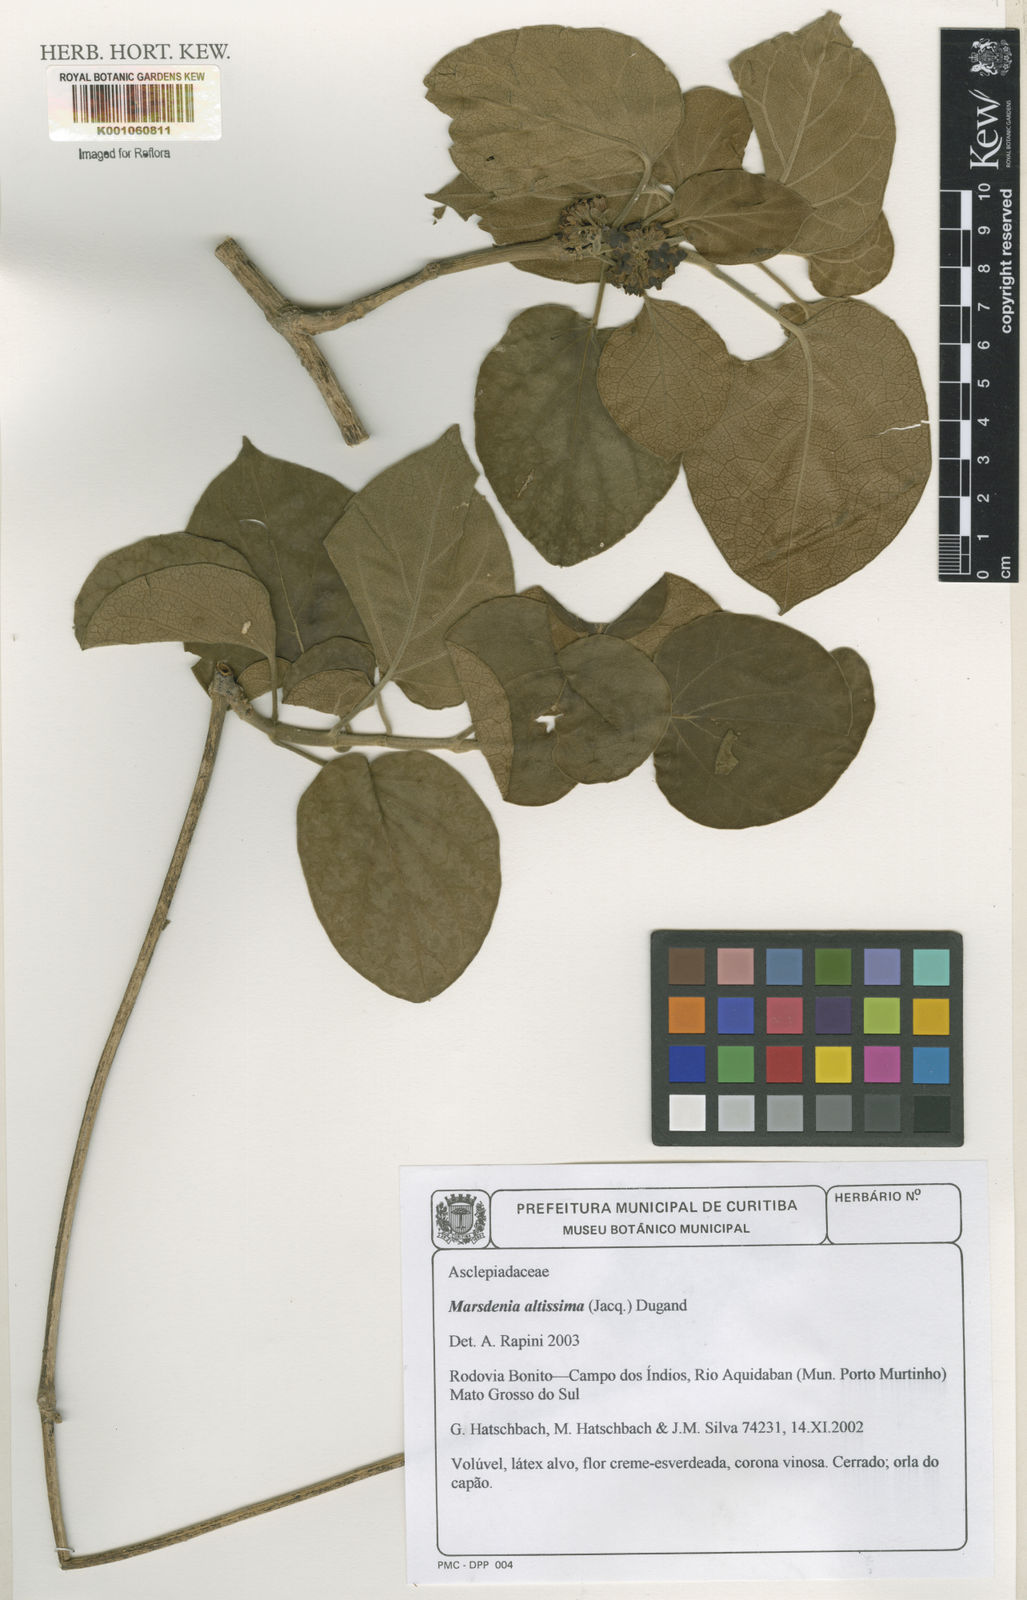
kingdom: Plantae
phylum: Tracheophyta
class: Magnoliopsida
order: Gentianales
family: Apocynaceae
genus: Ruehssia
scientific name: Ruehssia altissima
